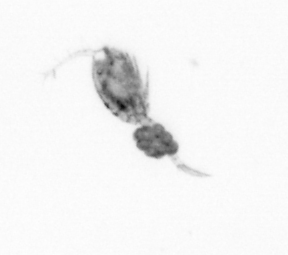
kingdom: Animalia
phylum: Arthropoda
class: Copepoda
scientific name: Copepoda
